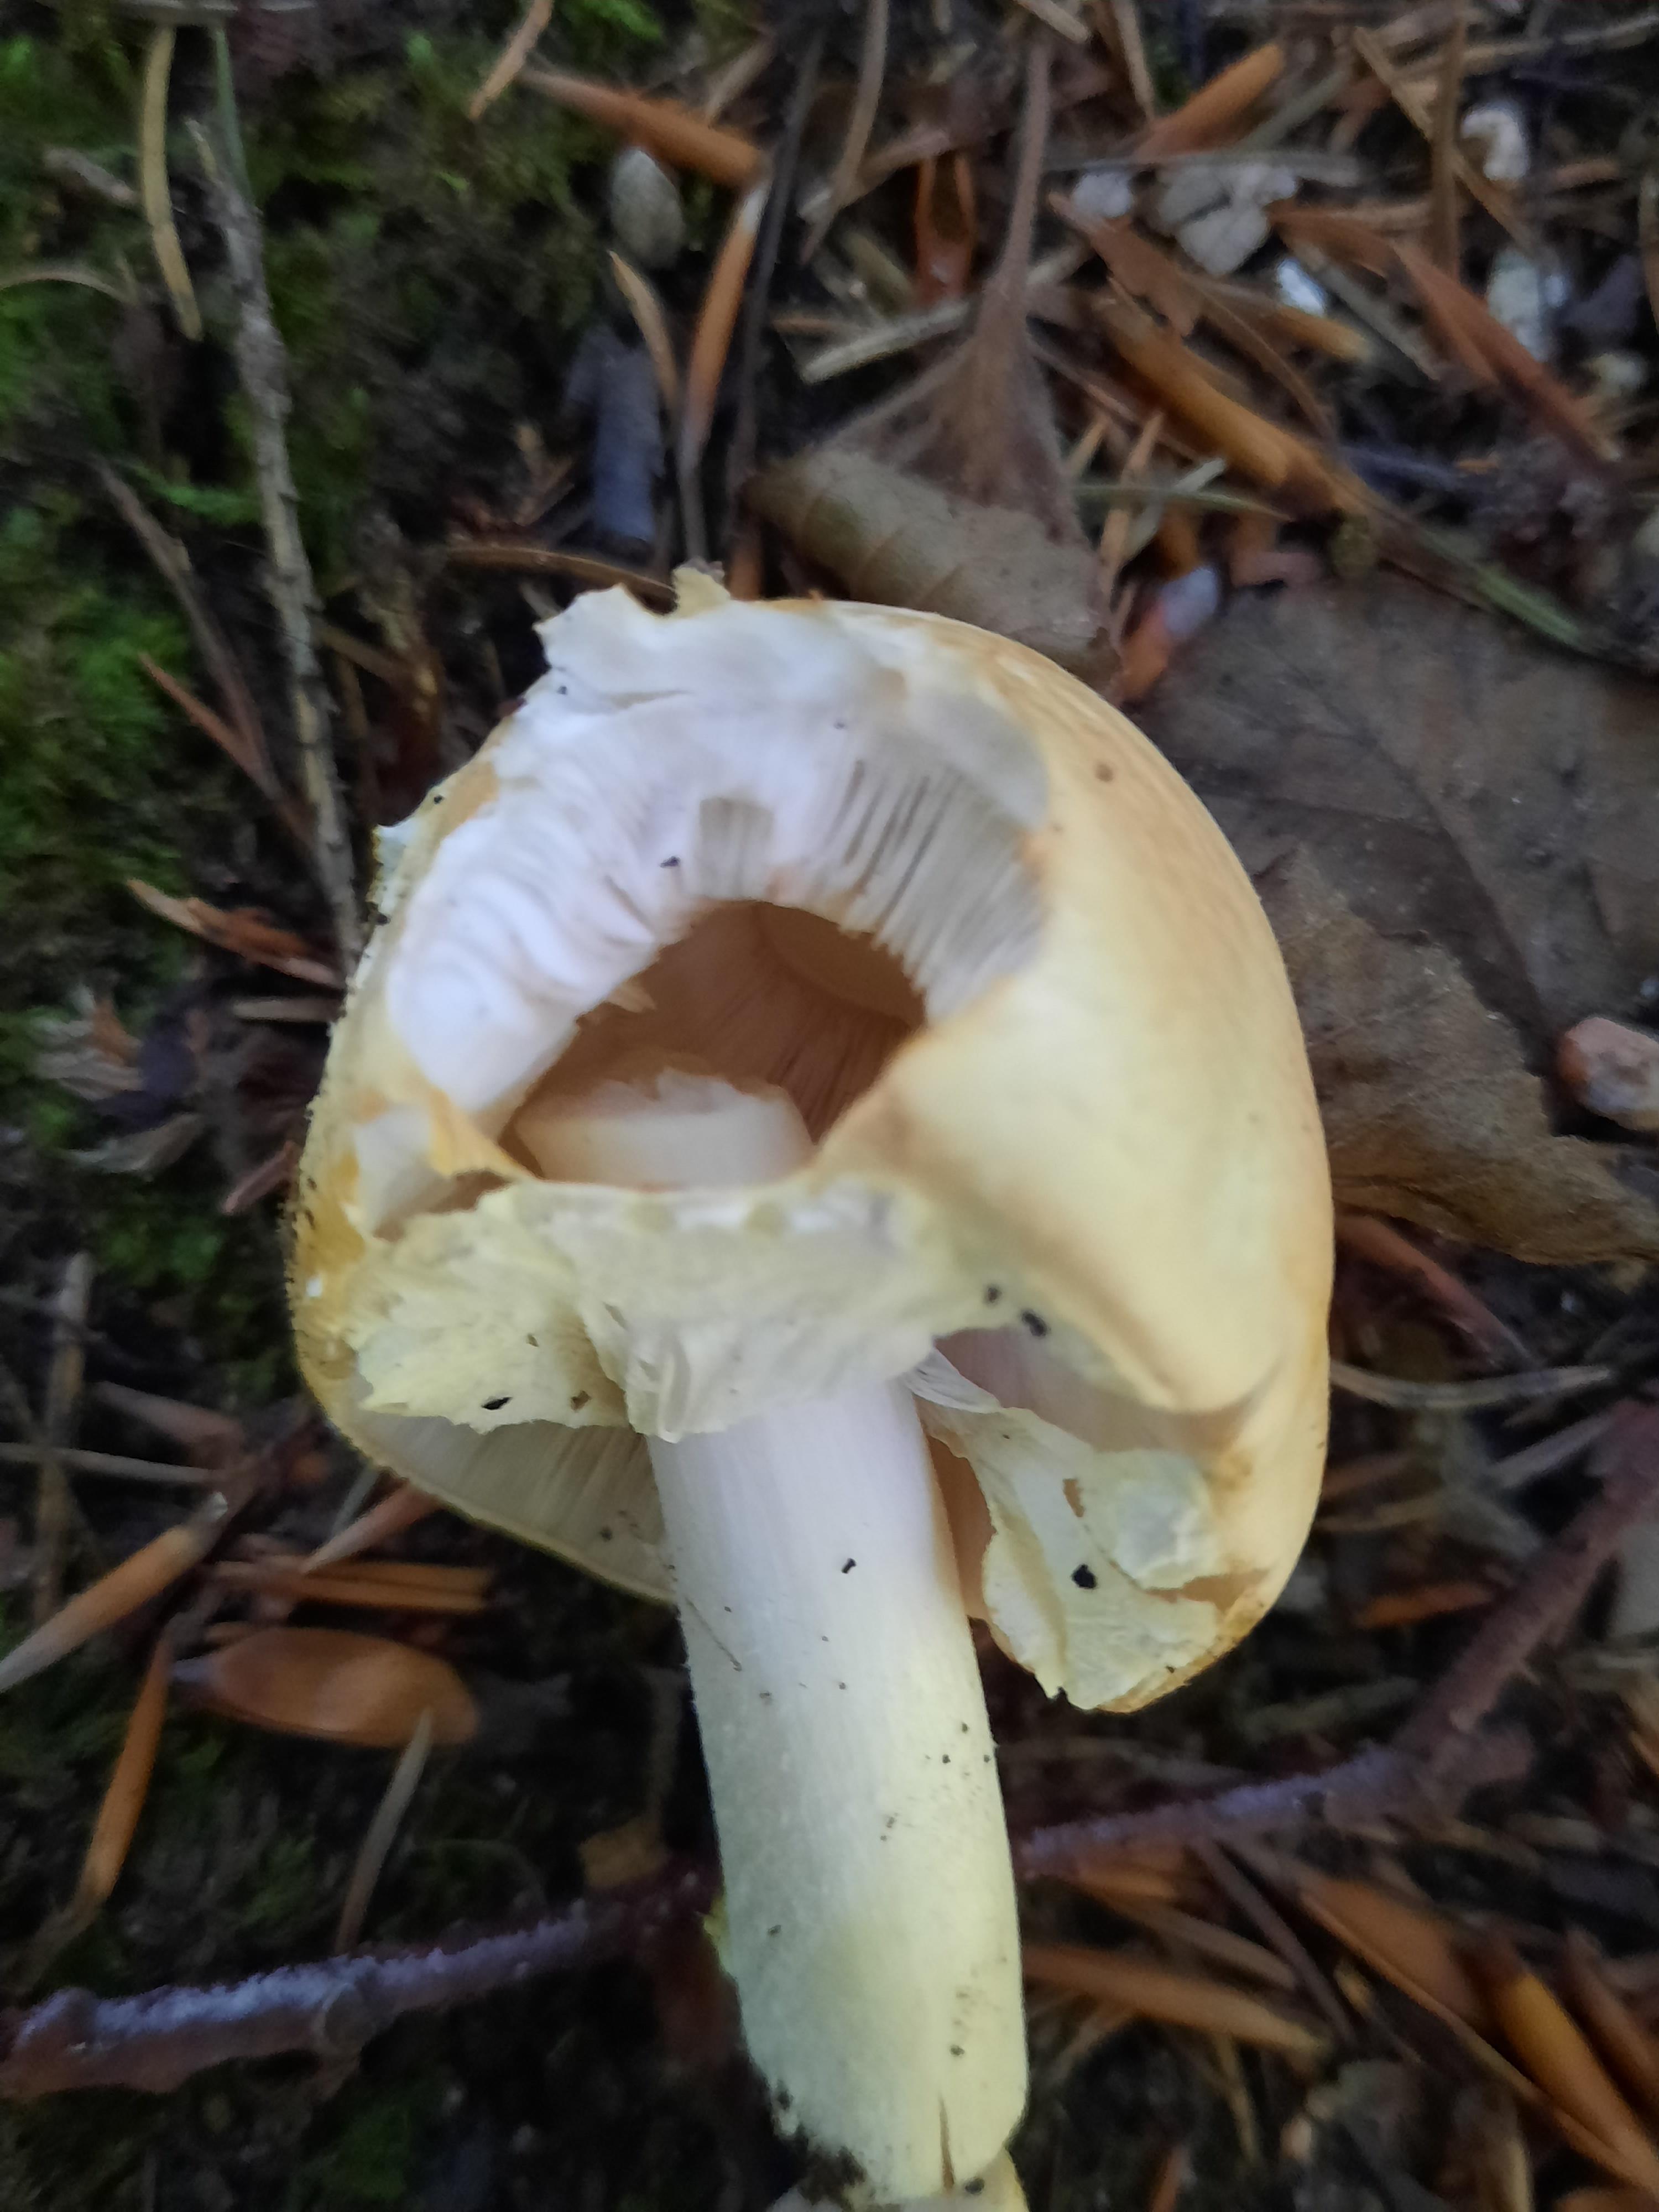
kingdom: Fungi
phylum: Basidiomycota
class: Agaricomycetes
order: Agaricales
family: Agaricaceae
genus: Agaricus
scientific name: Agaricus
